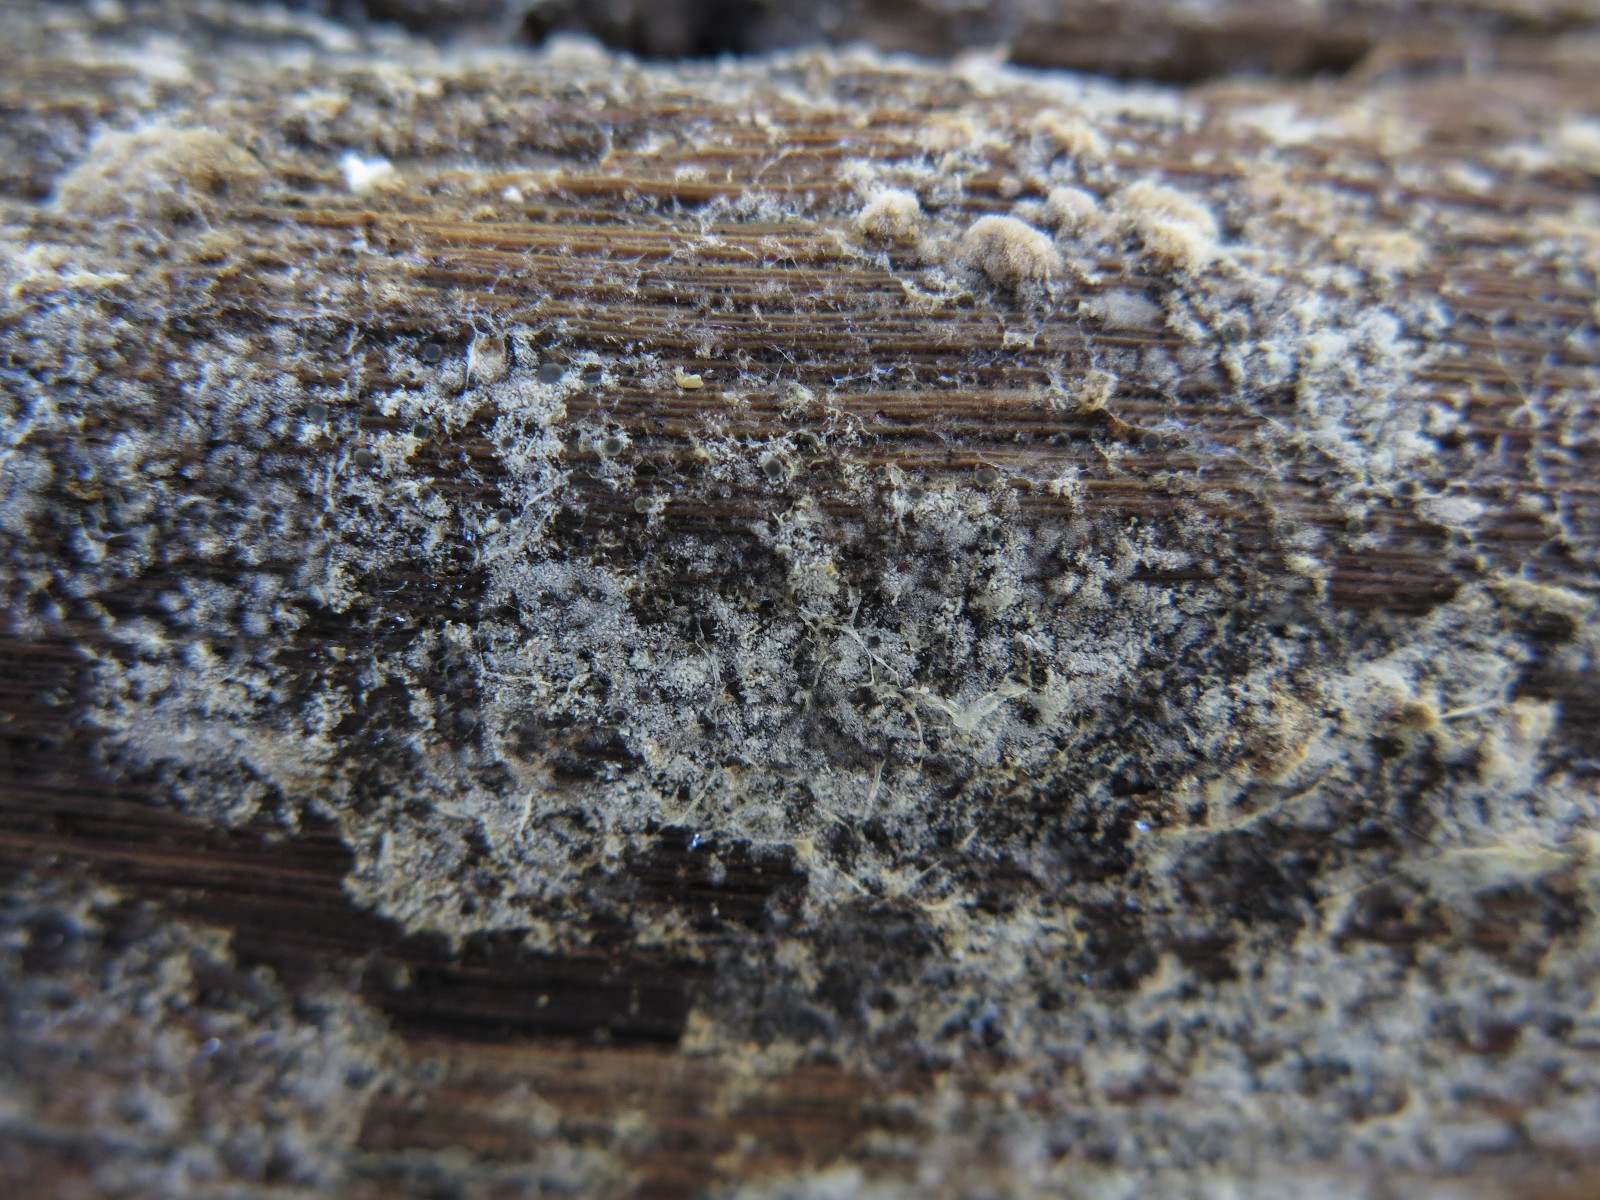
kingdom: Fungi
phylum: Basidiomycota
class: Agaricomycetes
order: Cantharellales
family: Botryobasidiaceae
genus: Botryobasidium
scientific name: Botryobasidium
